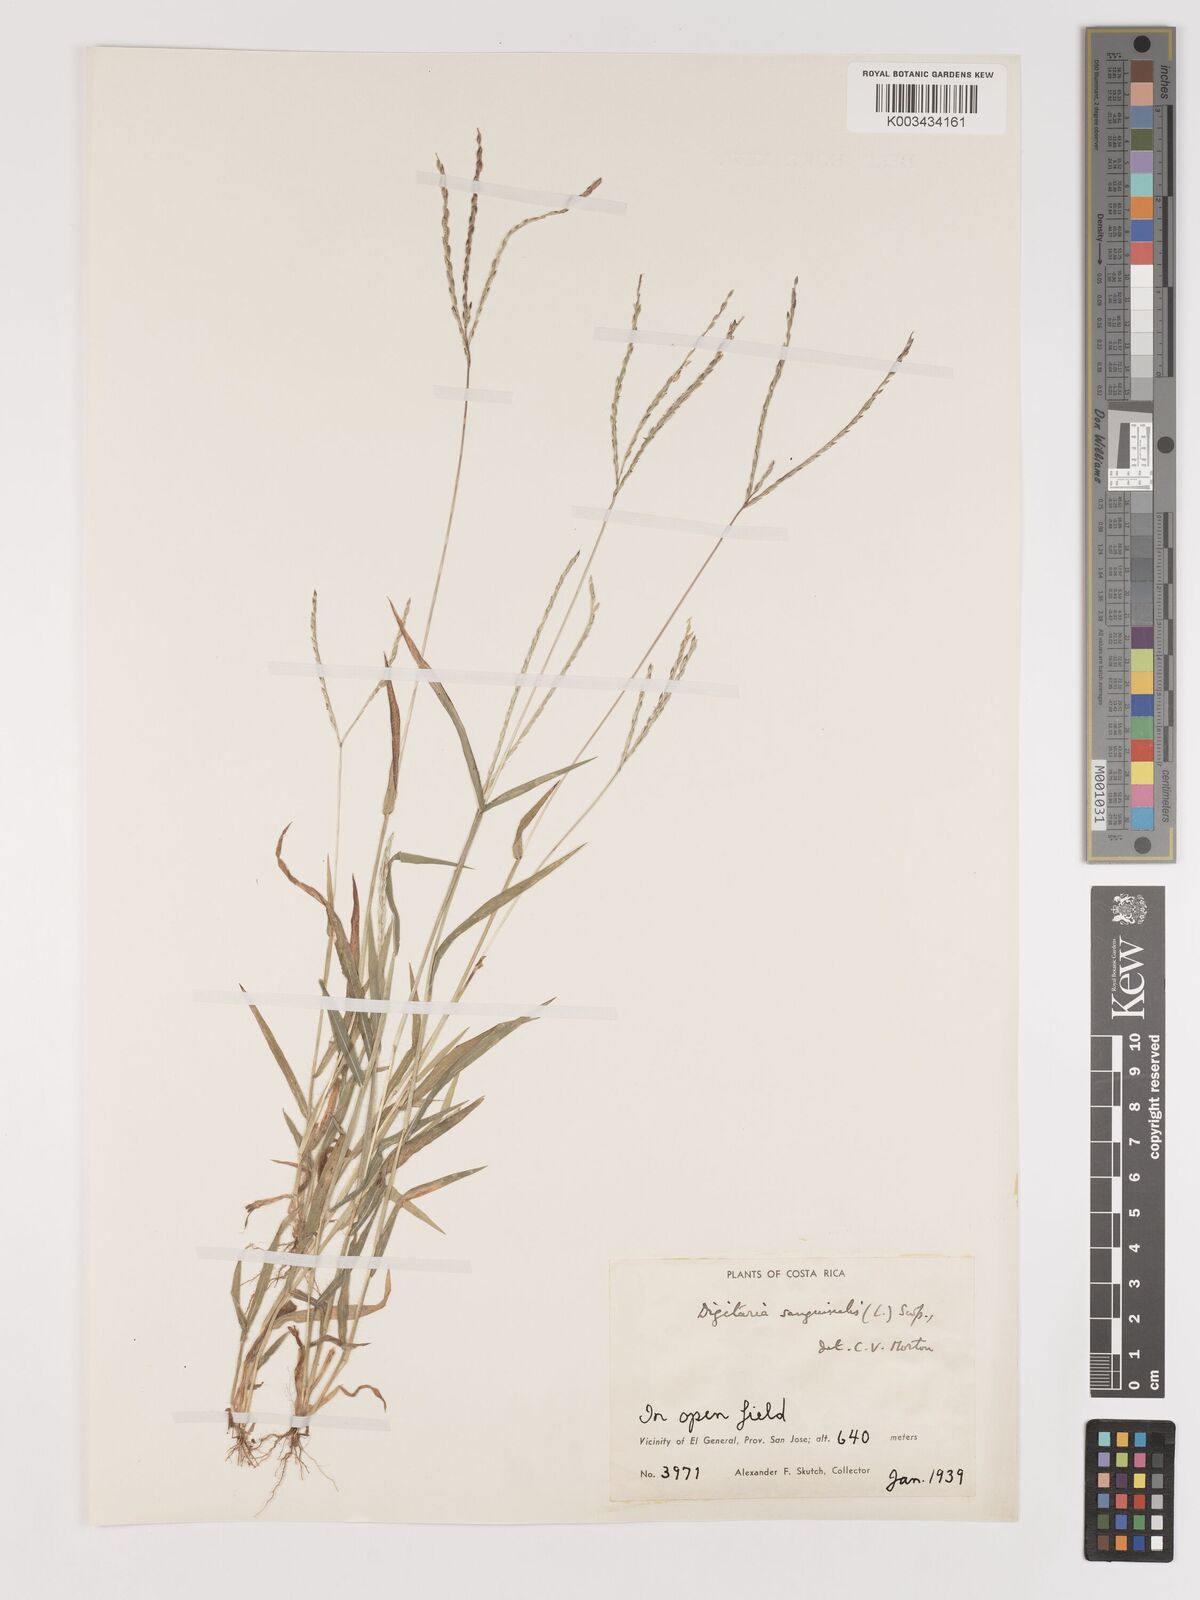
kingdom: Plantae
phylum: Tracheophyta
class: Liliopsida
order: Poales
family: Poaceae
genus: Digitaria
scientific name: Digitaria ciliaris
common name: Tropical finger-grass
